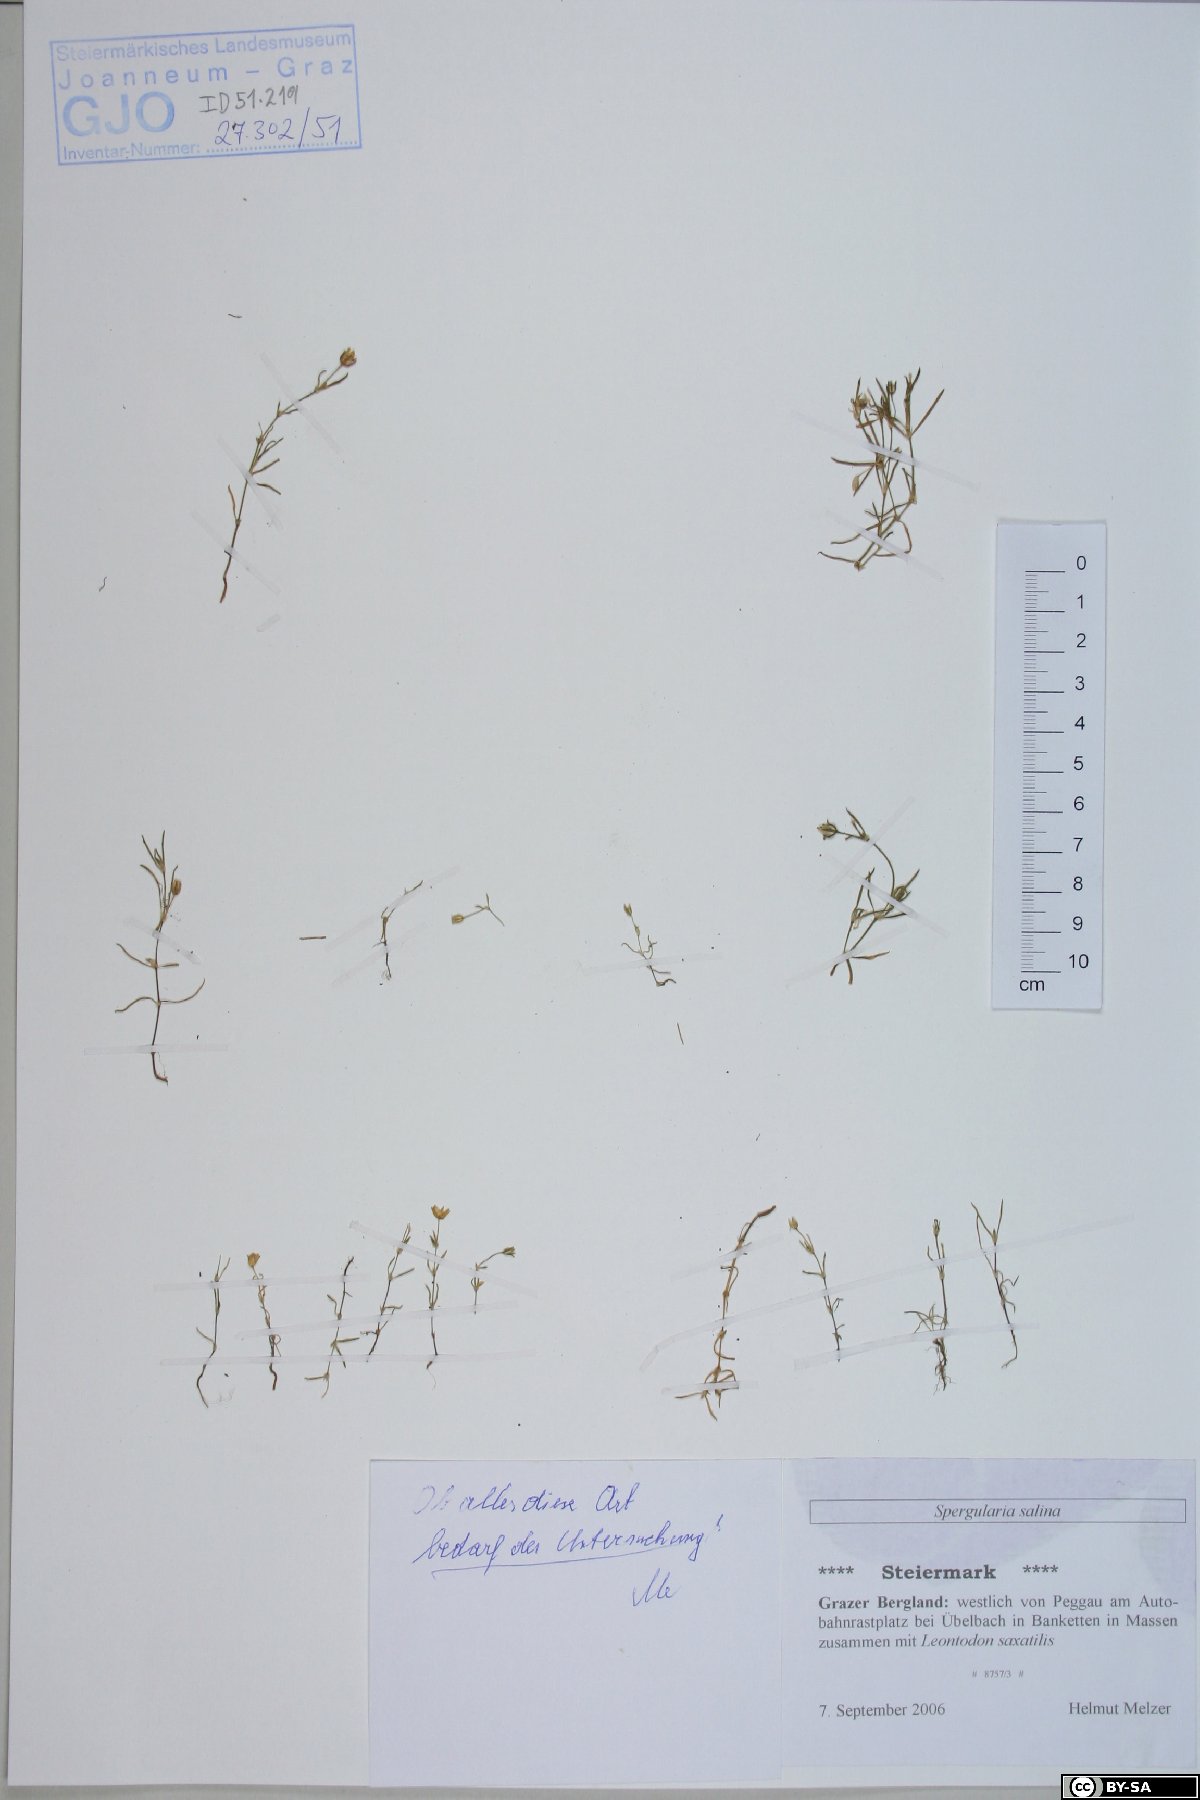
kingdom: Plantae
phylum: Tracheophyta
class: Magnoliopsida
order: Caryophyllales
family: Caryophyllaceae
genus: Spergularia
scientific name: Spergularia marina
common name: Lesser sea-spurrey
